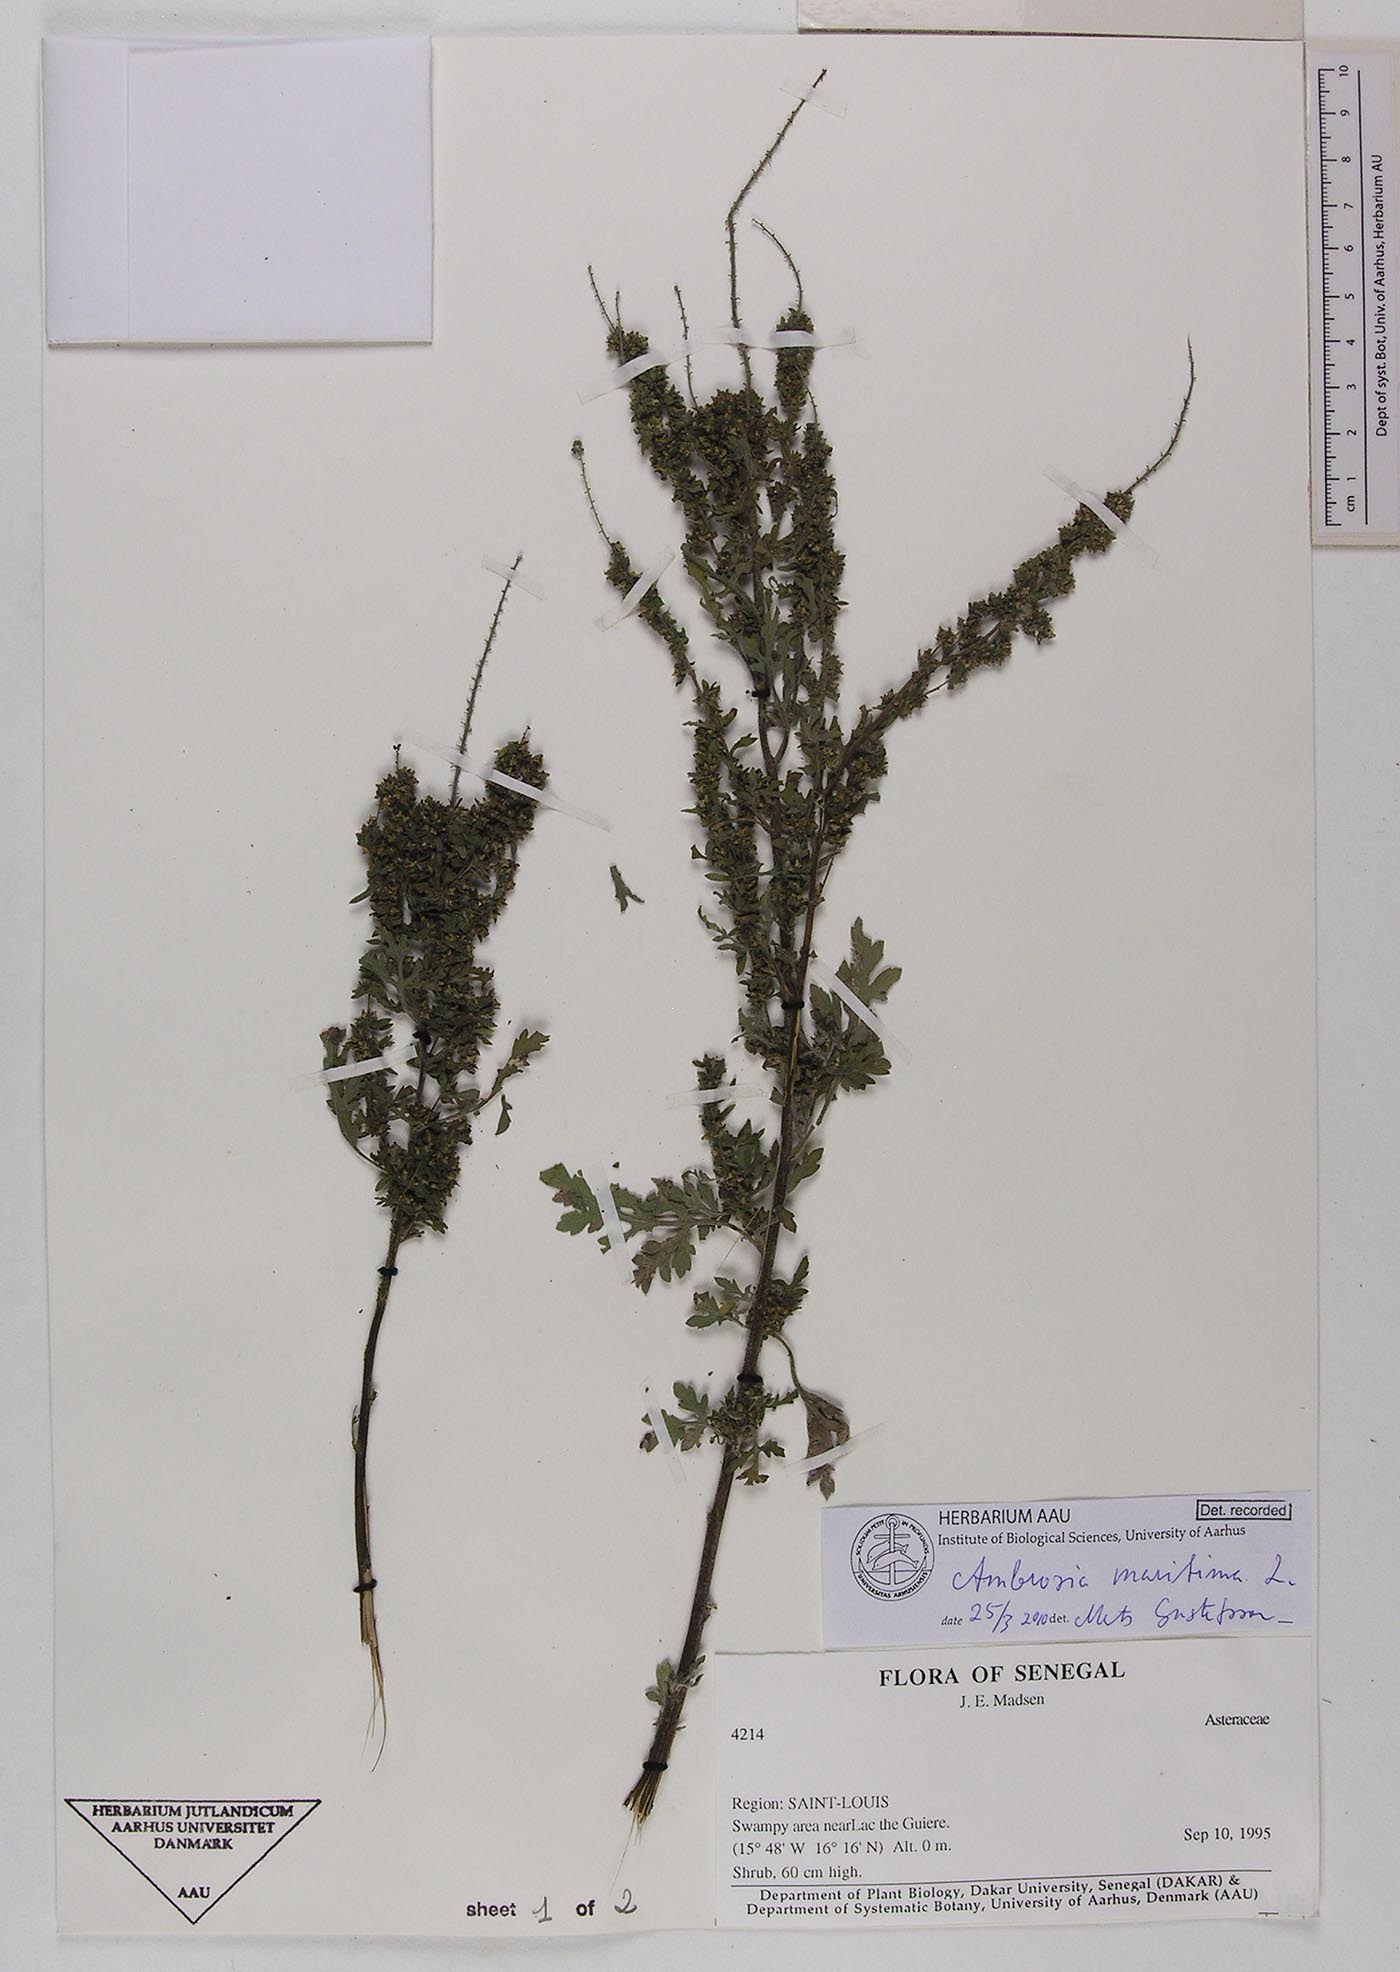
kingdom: Plantae
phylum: Tracheophyta
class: Magnoliopsida
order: Asterales
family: Asteraceae
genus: Ambrosia
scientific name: Ambrosia maritima
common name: Sea ambrosia
